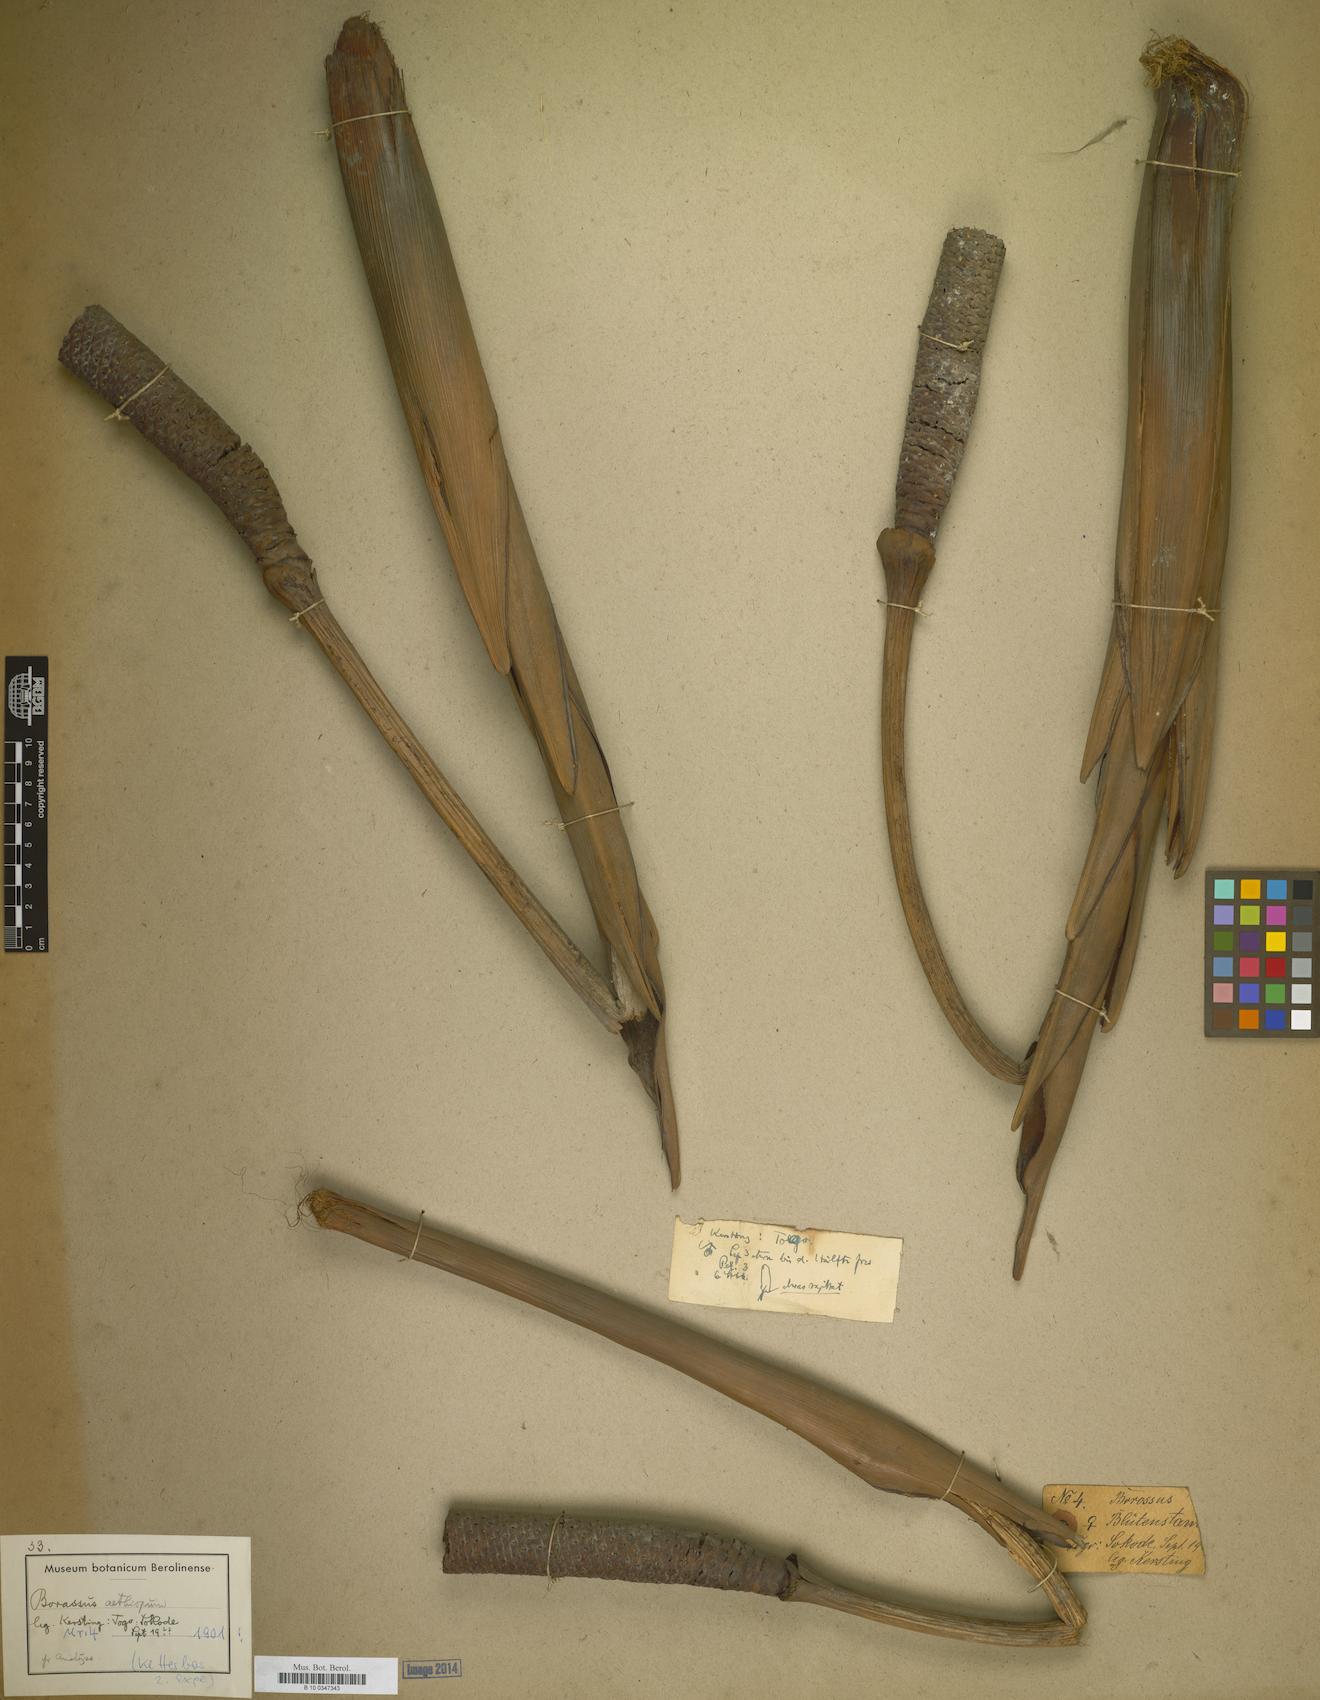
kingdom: Plantae
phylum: Tracheophyta
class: Liliopsida
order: Arecales
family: Arecaceae
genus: Borassus
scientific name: Borassus aethiopicum
